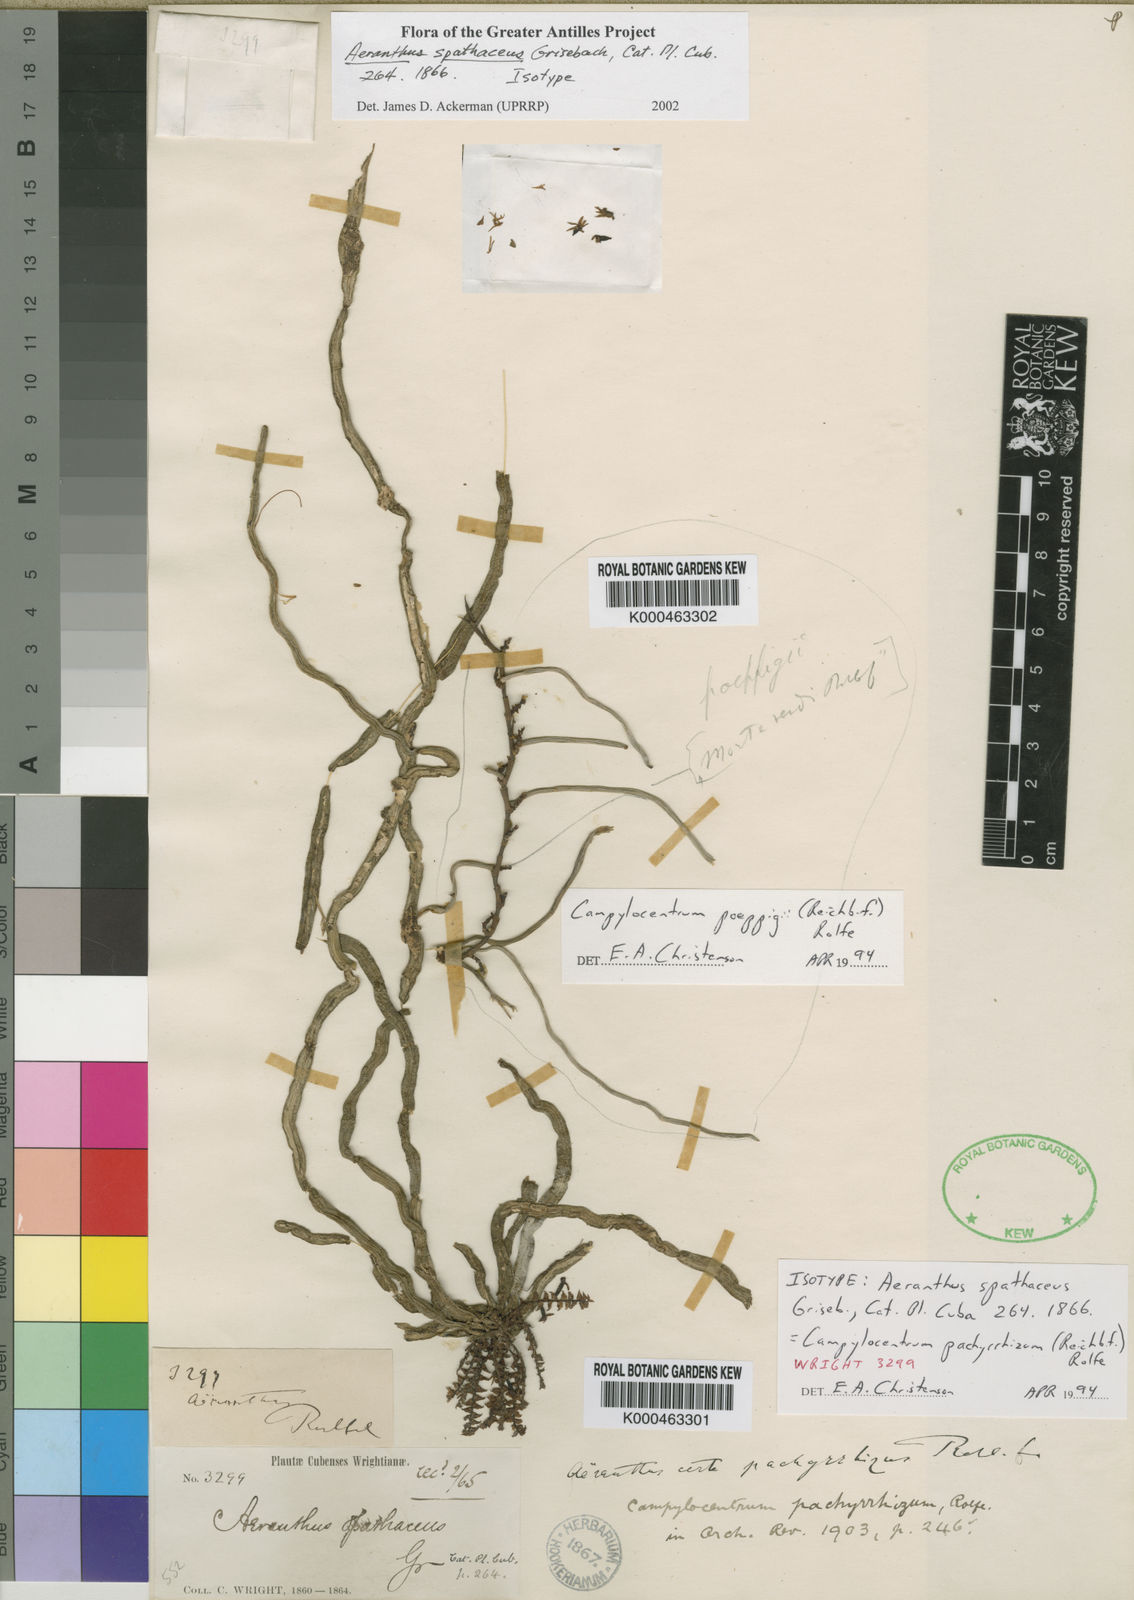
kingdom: Plantae
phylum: Tracheophyta
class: Liliopsida
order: Asparagales
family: Orchidaceae
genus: Campylocentrum
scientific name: Campylocentrum pachyrrhizum
